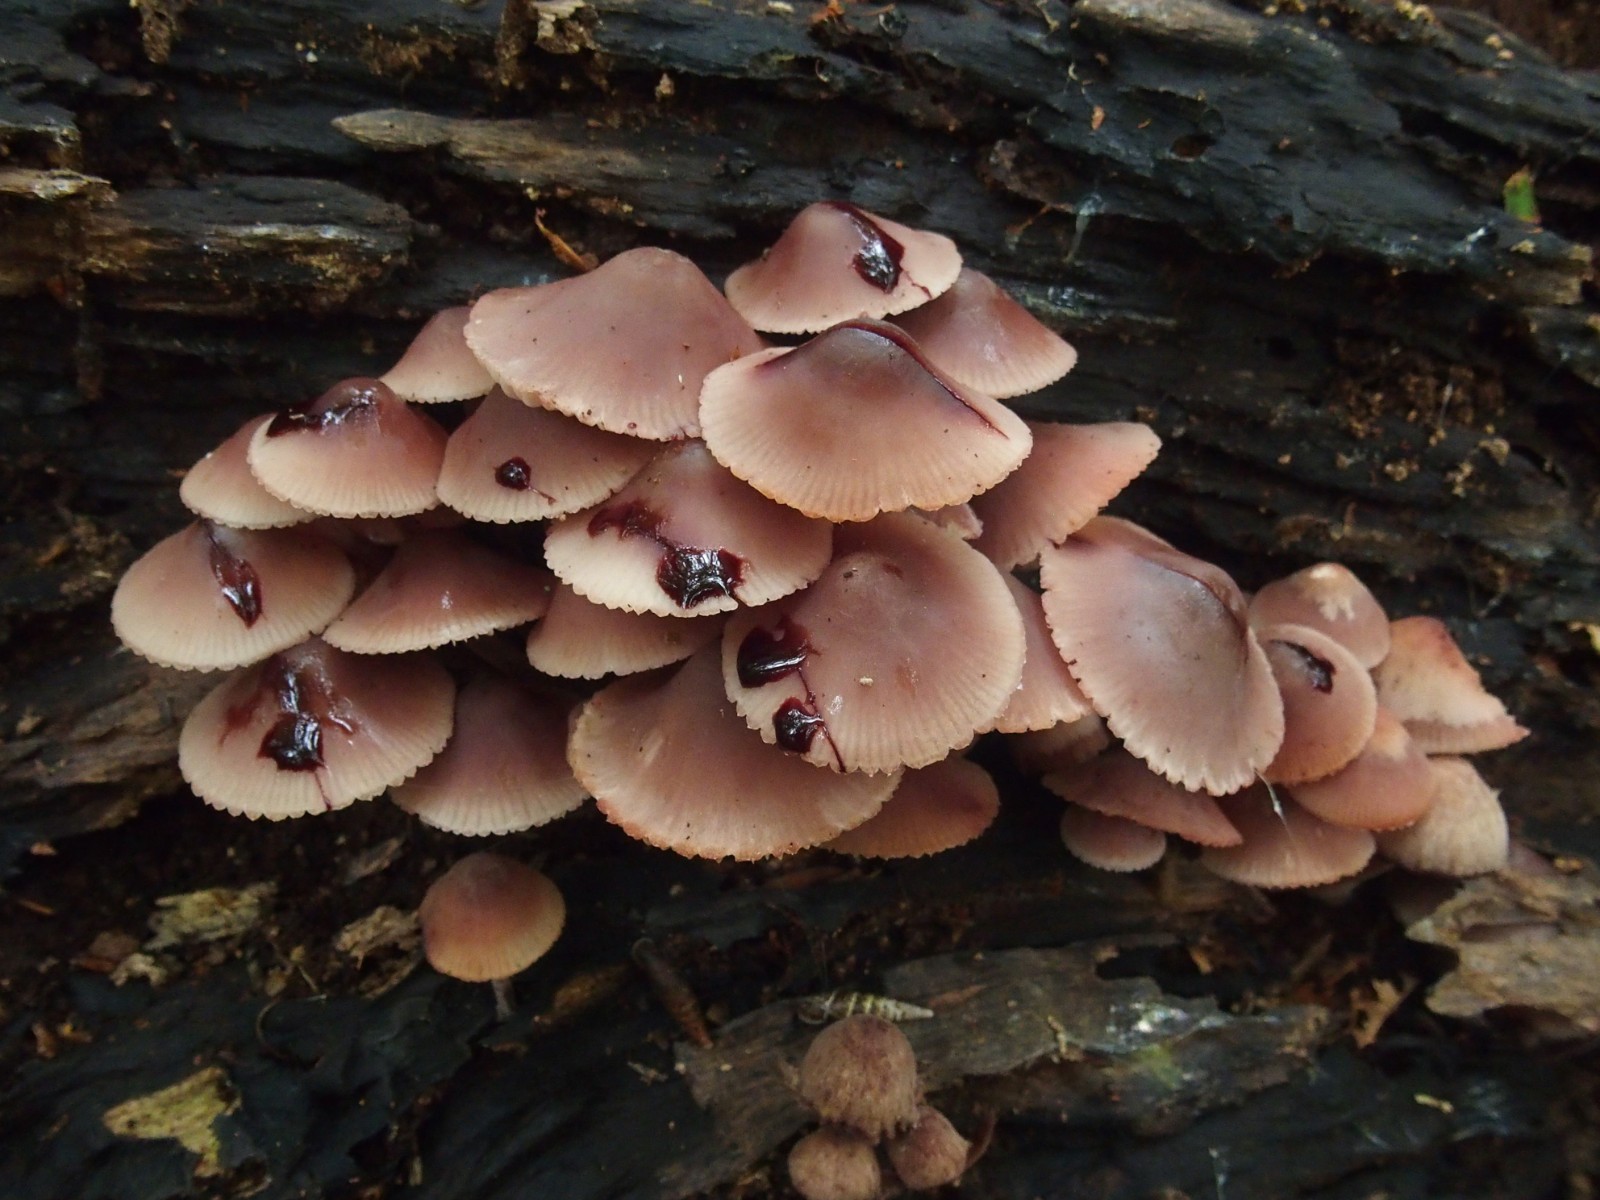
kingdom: Fungi
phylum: Basidiomycota
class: Agaricomycetes
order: Agaricales
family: Mycenaceae
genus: Mycena
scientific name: Mycena haematopus
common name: blødende huesvamp
